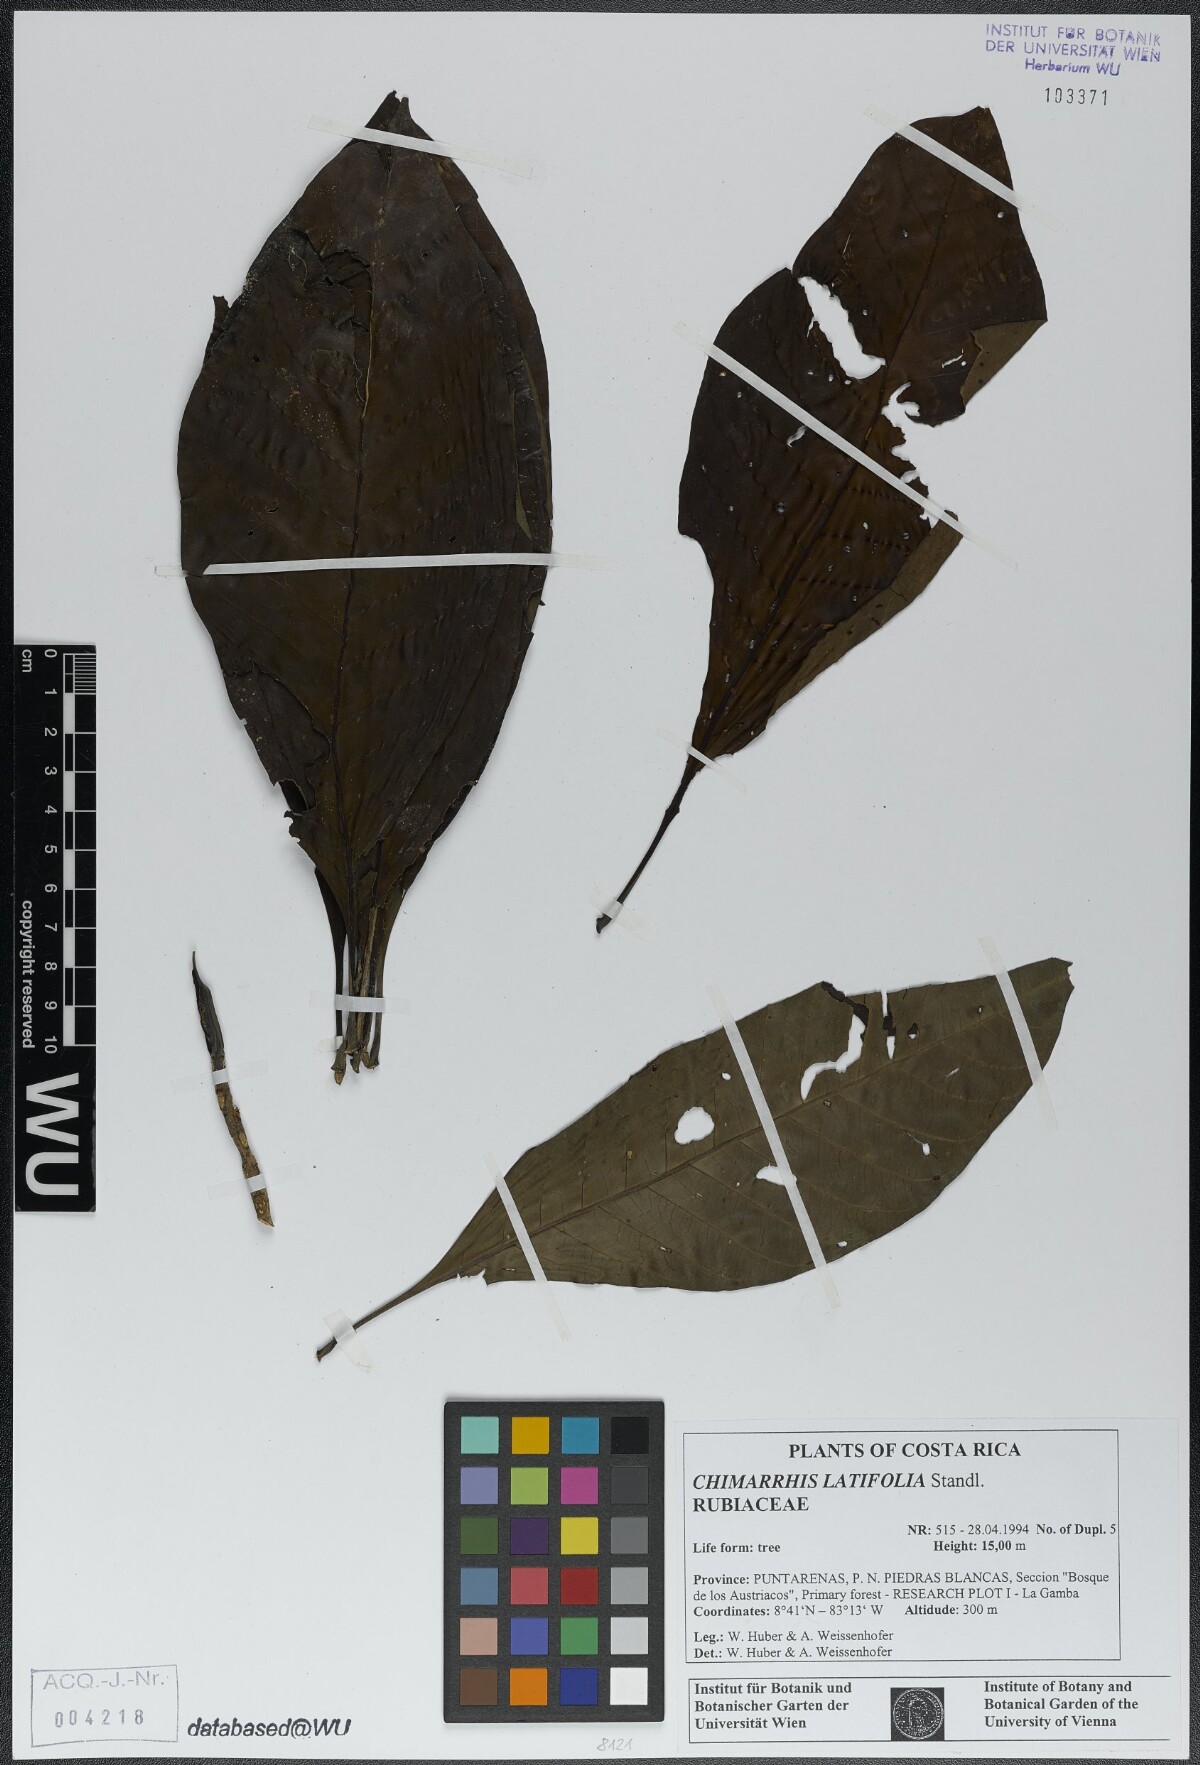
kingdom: Plantae
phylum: Tracheophyta
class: Magnoliopsida
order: Gentianales
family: Rubiaceae
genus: Chimarrhis
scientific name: Chimarrhis latifolia
